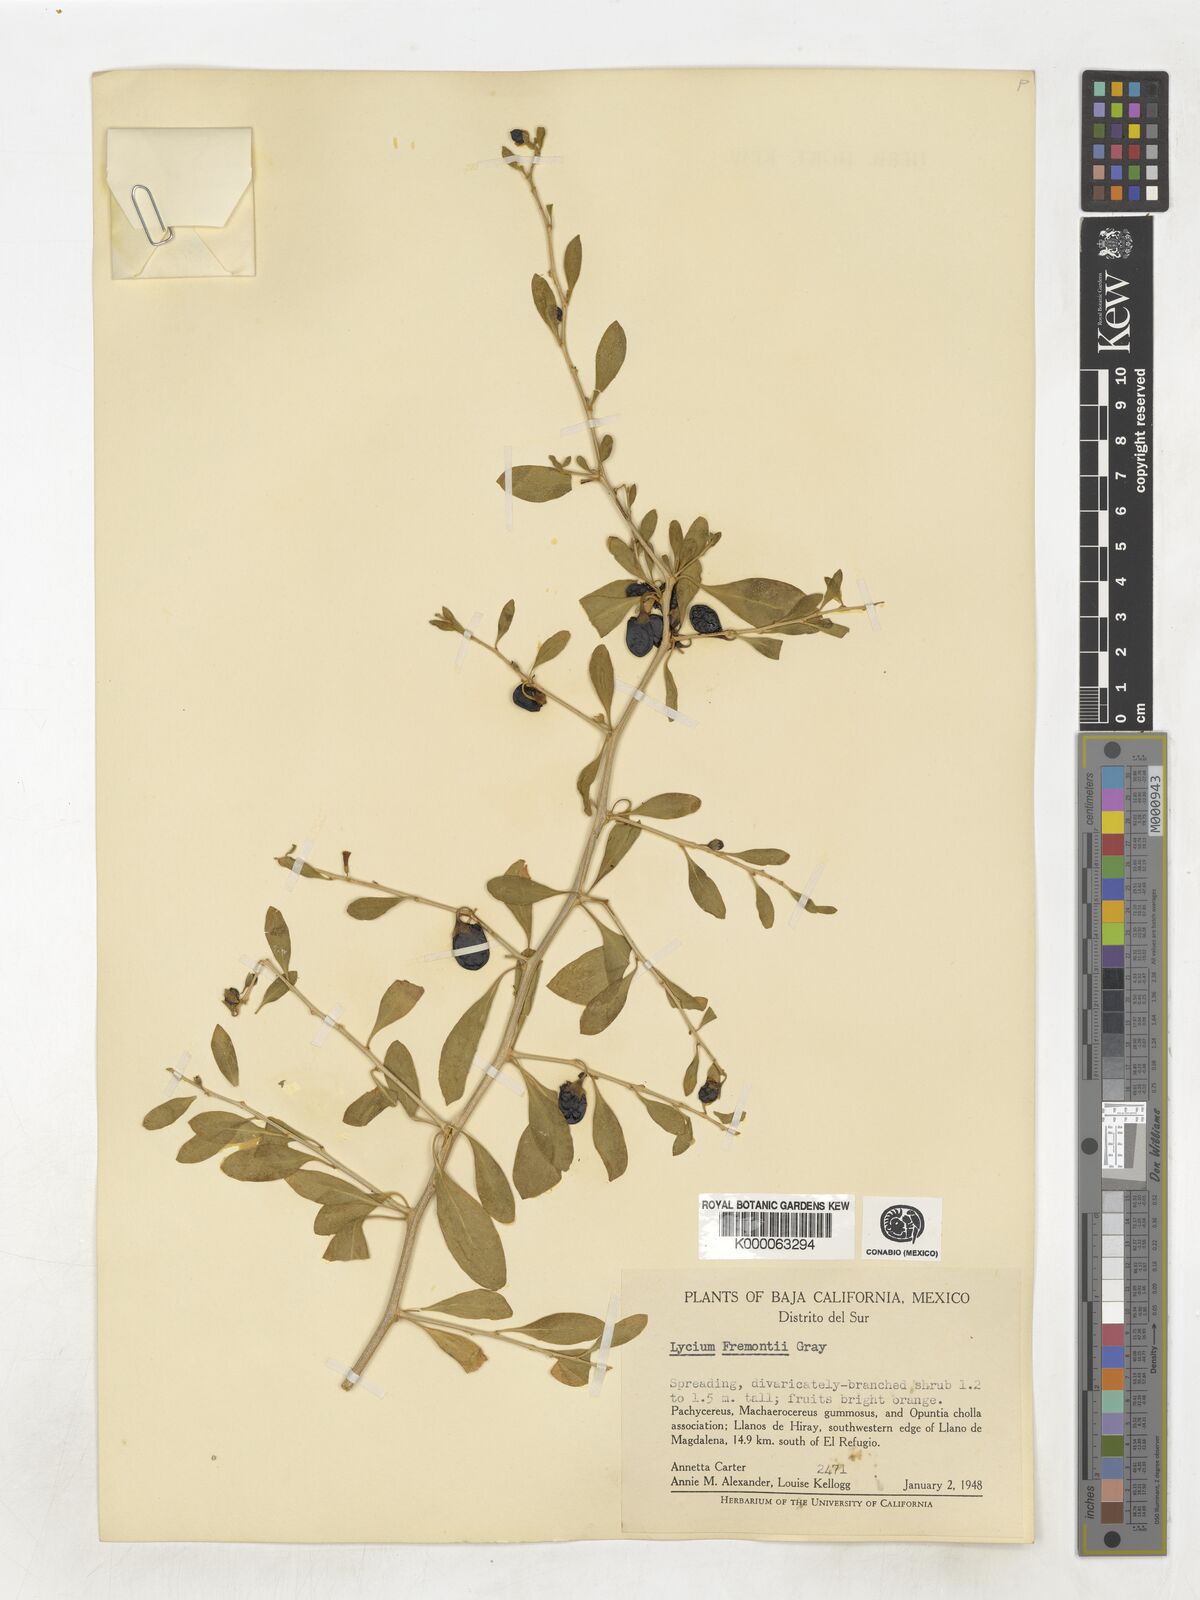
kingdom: Plantae
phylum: Tracheophyta
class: Magnoliopsida
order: Solanales
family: Solanaceae
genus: Lycium
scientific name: Lycium fremontii
